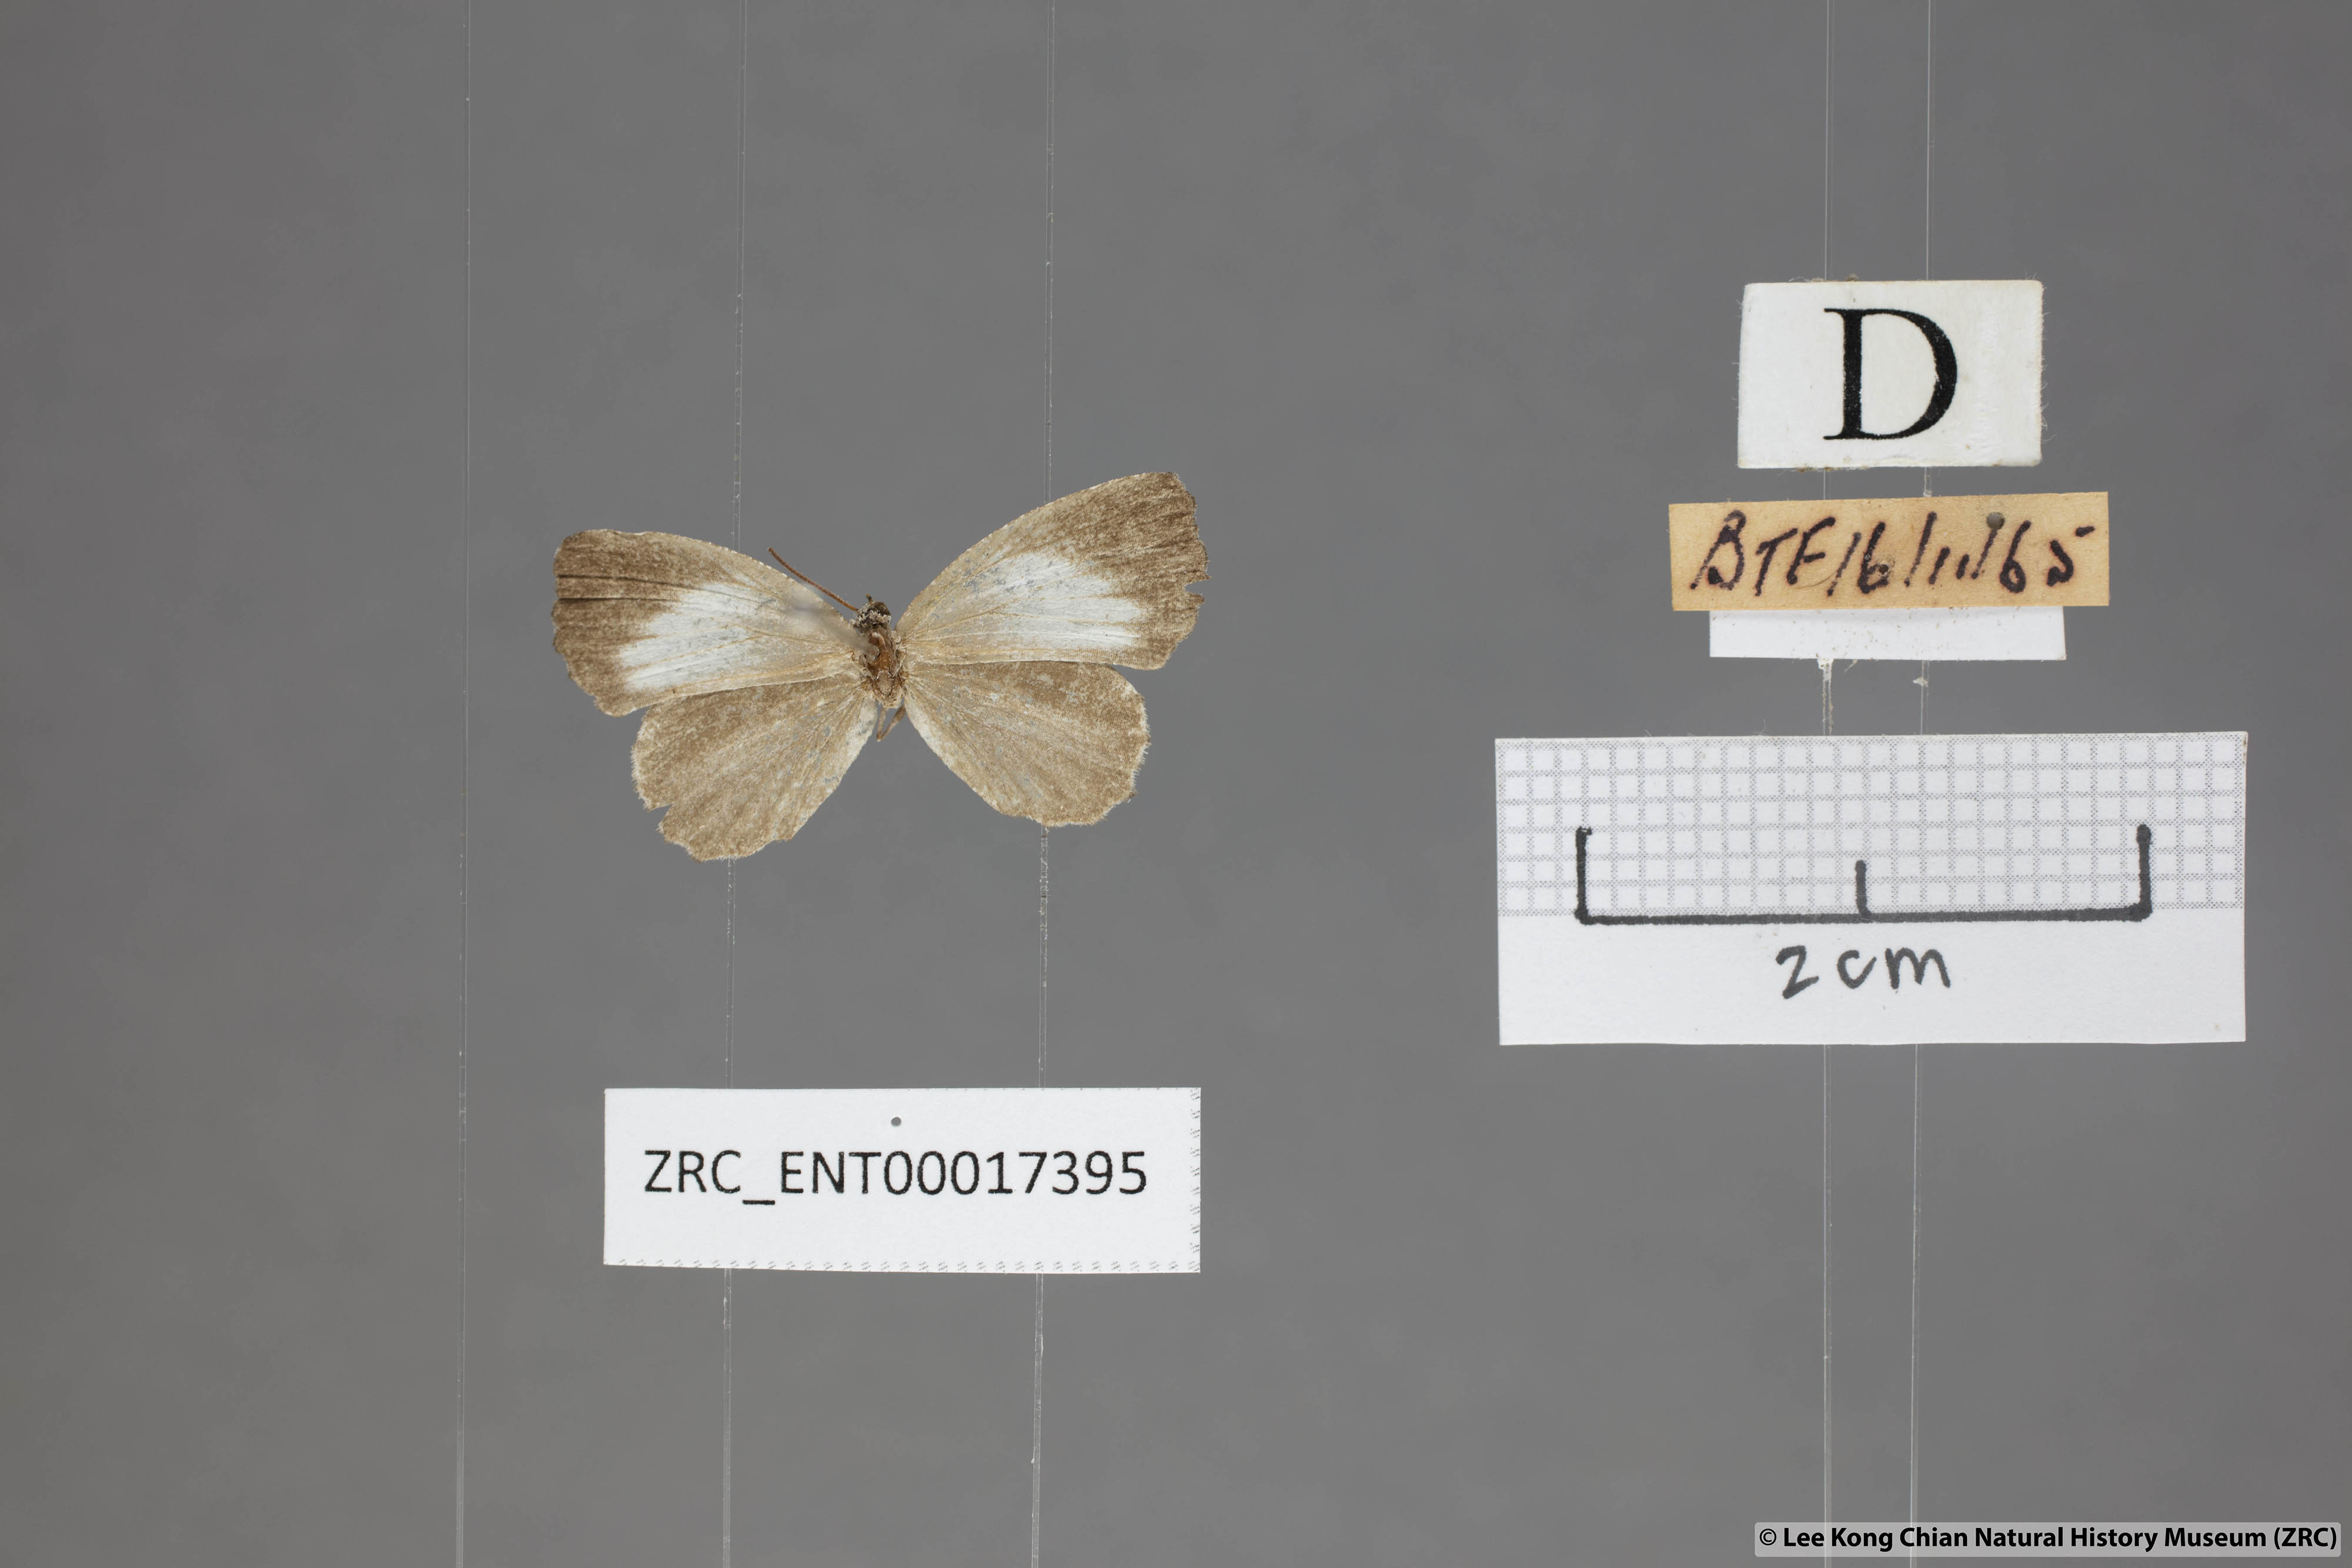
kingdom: Animalia
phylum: Arthropoda
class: Insecta
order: Lepidoptera
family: Lycaenidae
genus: Logania
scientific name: Logania marmorata
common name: Pale mottle
